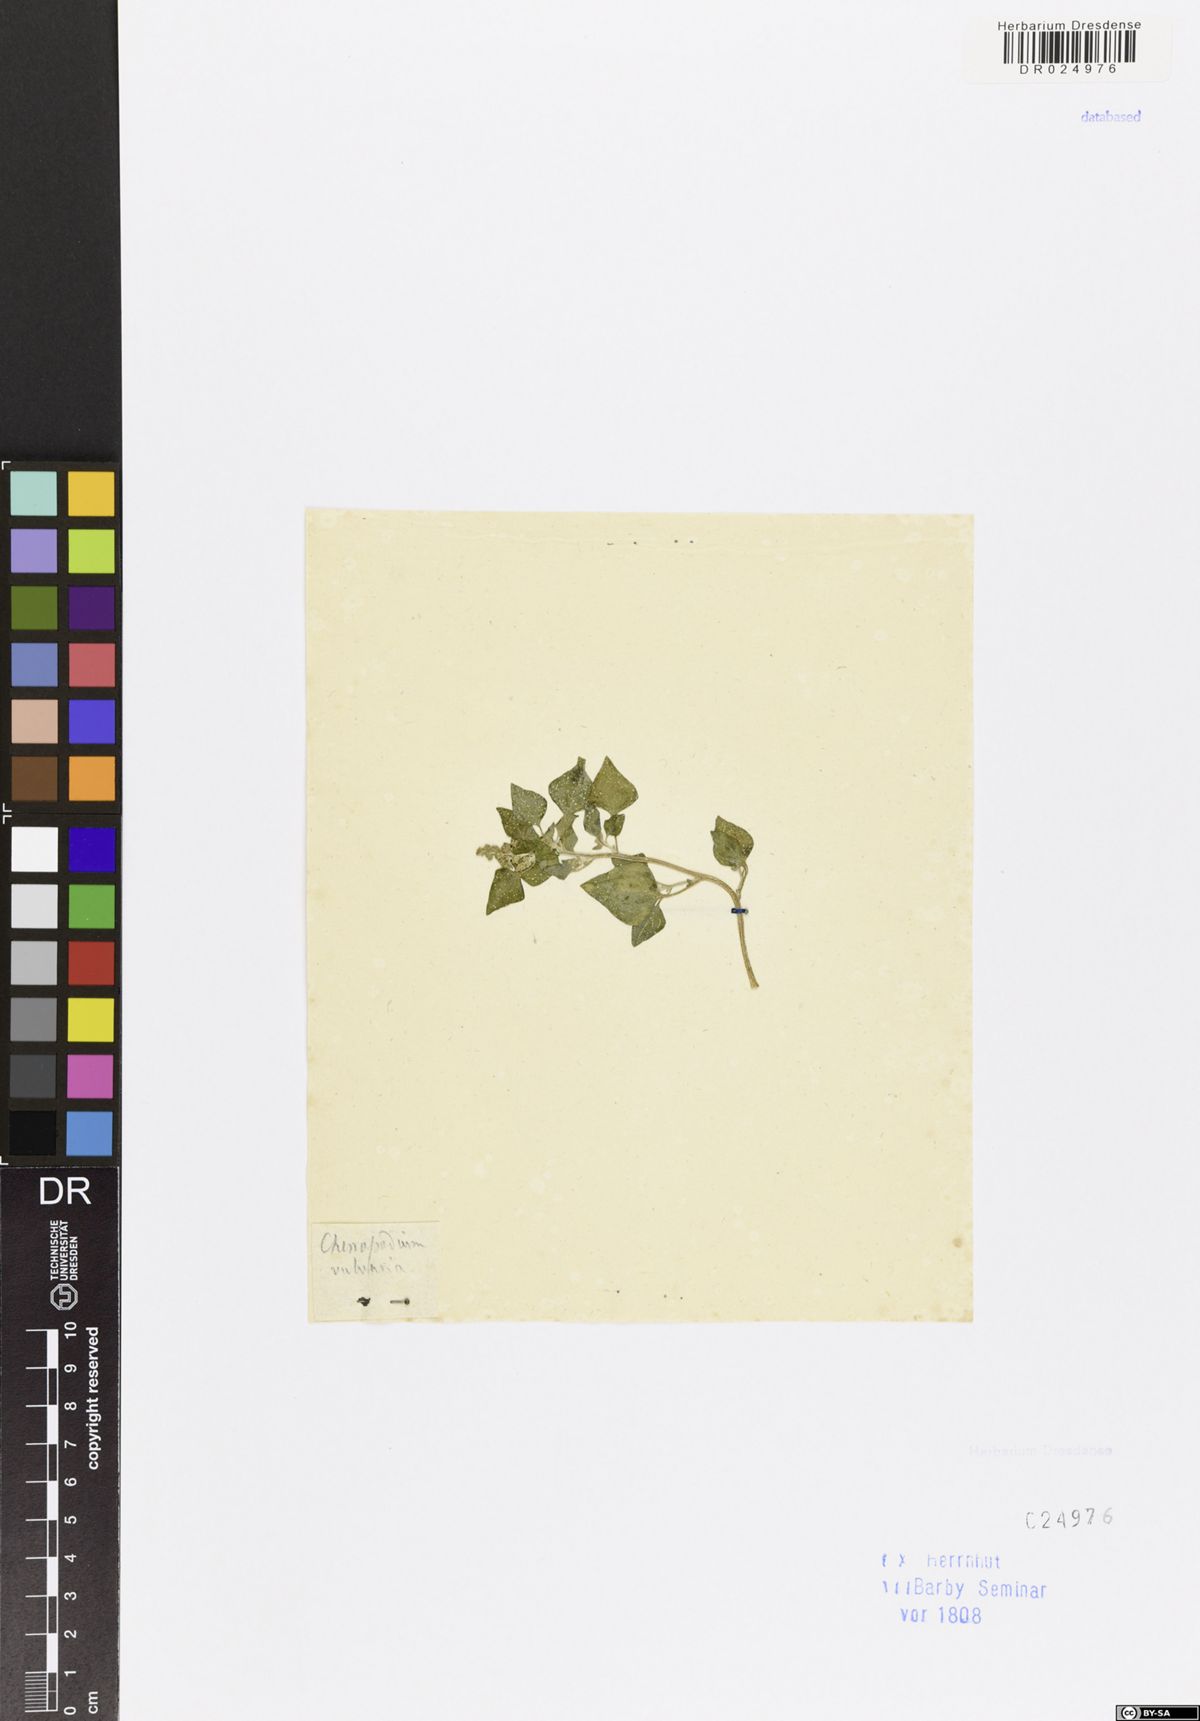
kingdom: Plantae
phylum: Tracheophyta
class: Magnoliopsida
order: Caryophyllales
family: Amaranthaceae
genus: Chenopodium
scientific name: Chenopodium vulvaria
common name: Stinking goosefoot
